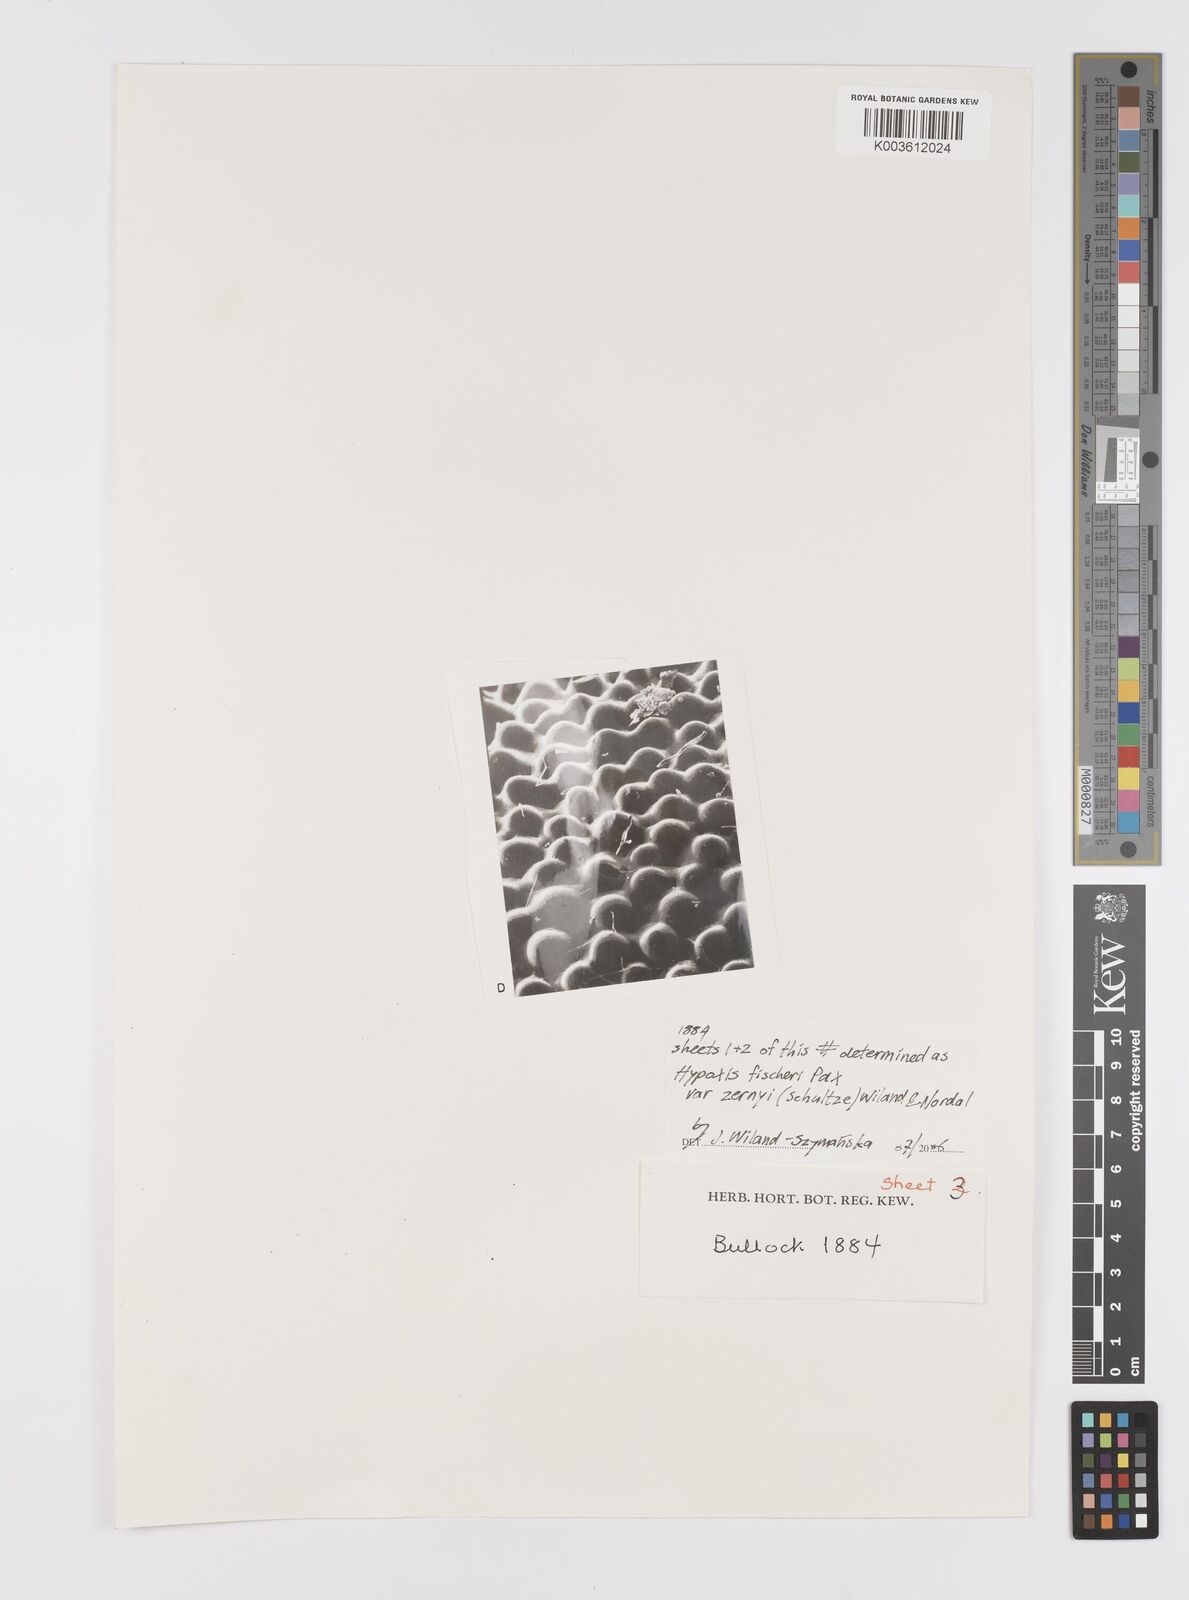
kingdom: Plantae
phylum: Tracheophyta
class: Liliopsida
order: Asparagales
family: Hypoxidaceae
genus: Hypoxis
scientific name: Hypoxis fischeri
